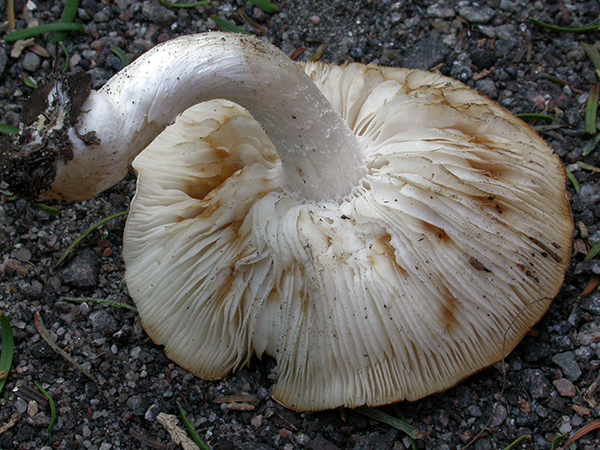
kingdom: Fungi
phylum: Basidiomycota
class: Agaricomycetes
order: Agaricales
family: Hymenogastraceae
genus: Hebeloma
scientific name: Hebeloma geminatum
